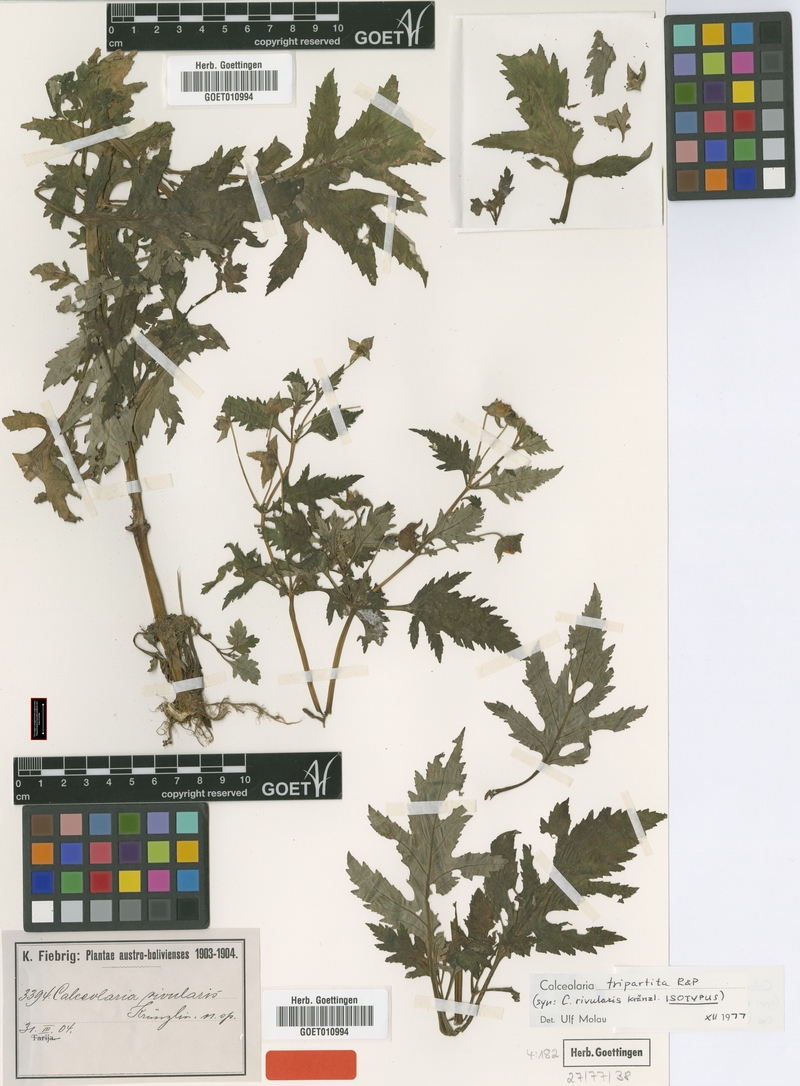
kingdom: Plantae
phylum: Tracheophyta
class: Magnoliopsida
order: Lamiales
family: Calceolariaceae
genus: Calceolaria
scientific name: Calceolaria tripartita
